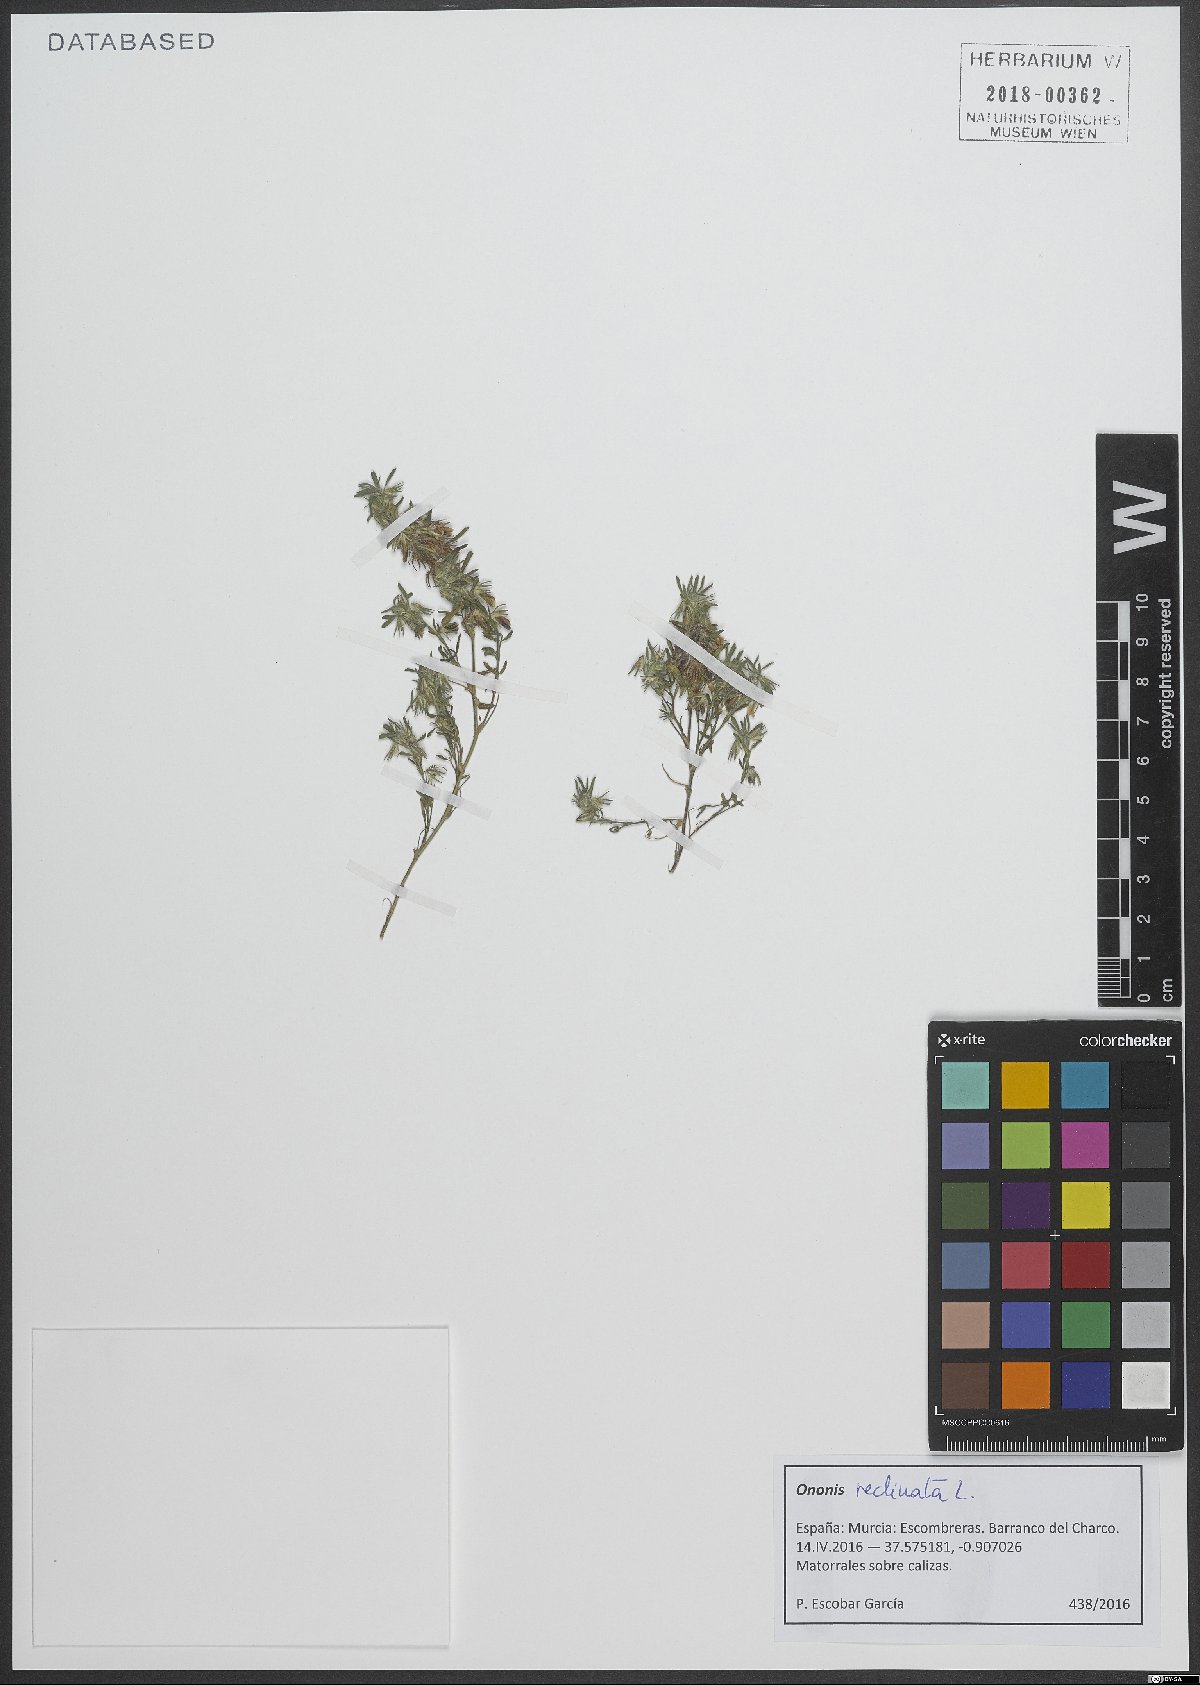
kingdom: Plantae
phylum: Tracheophyta
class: Magnoliopsida
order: Fabales
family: Fabaceae
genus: Ononis
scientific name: Ononis reclinata
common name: Small restharrow
